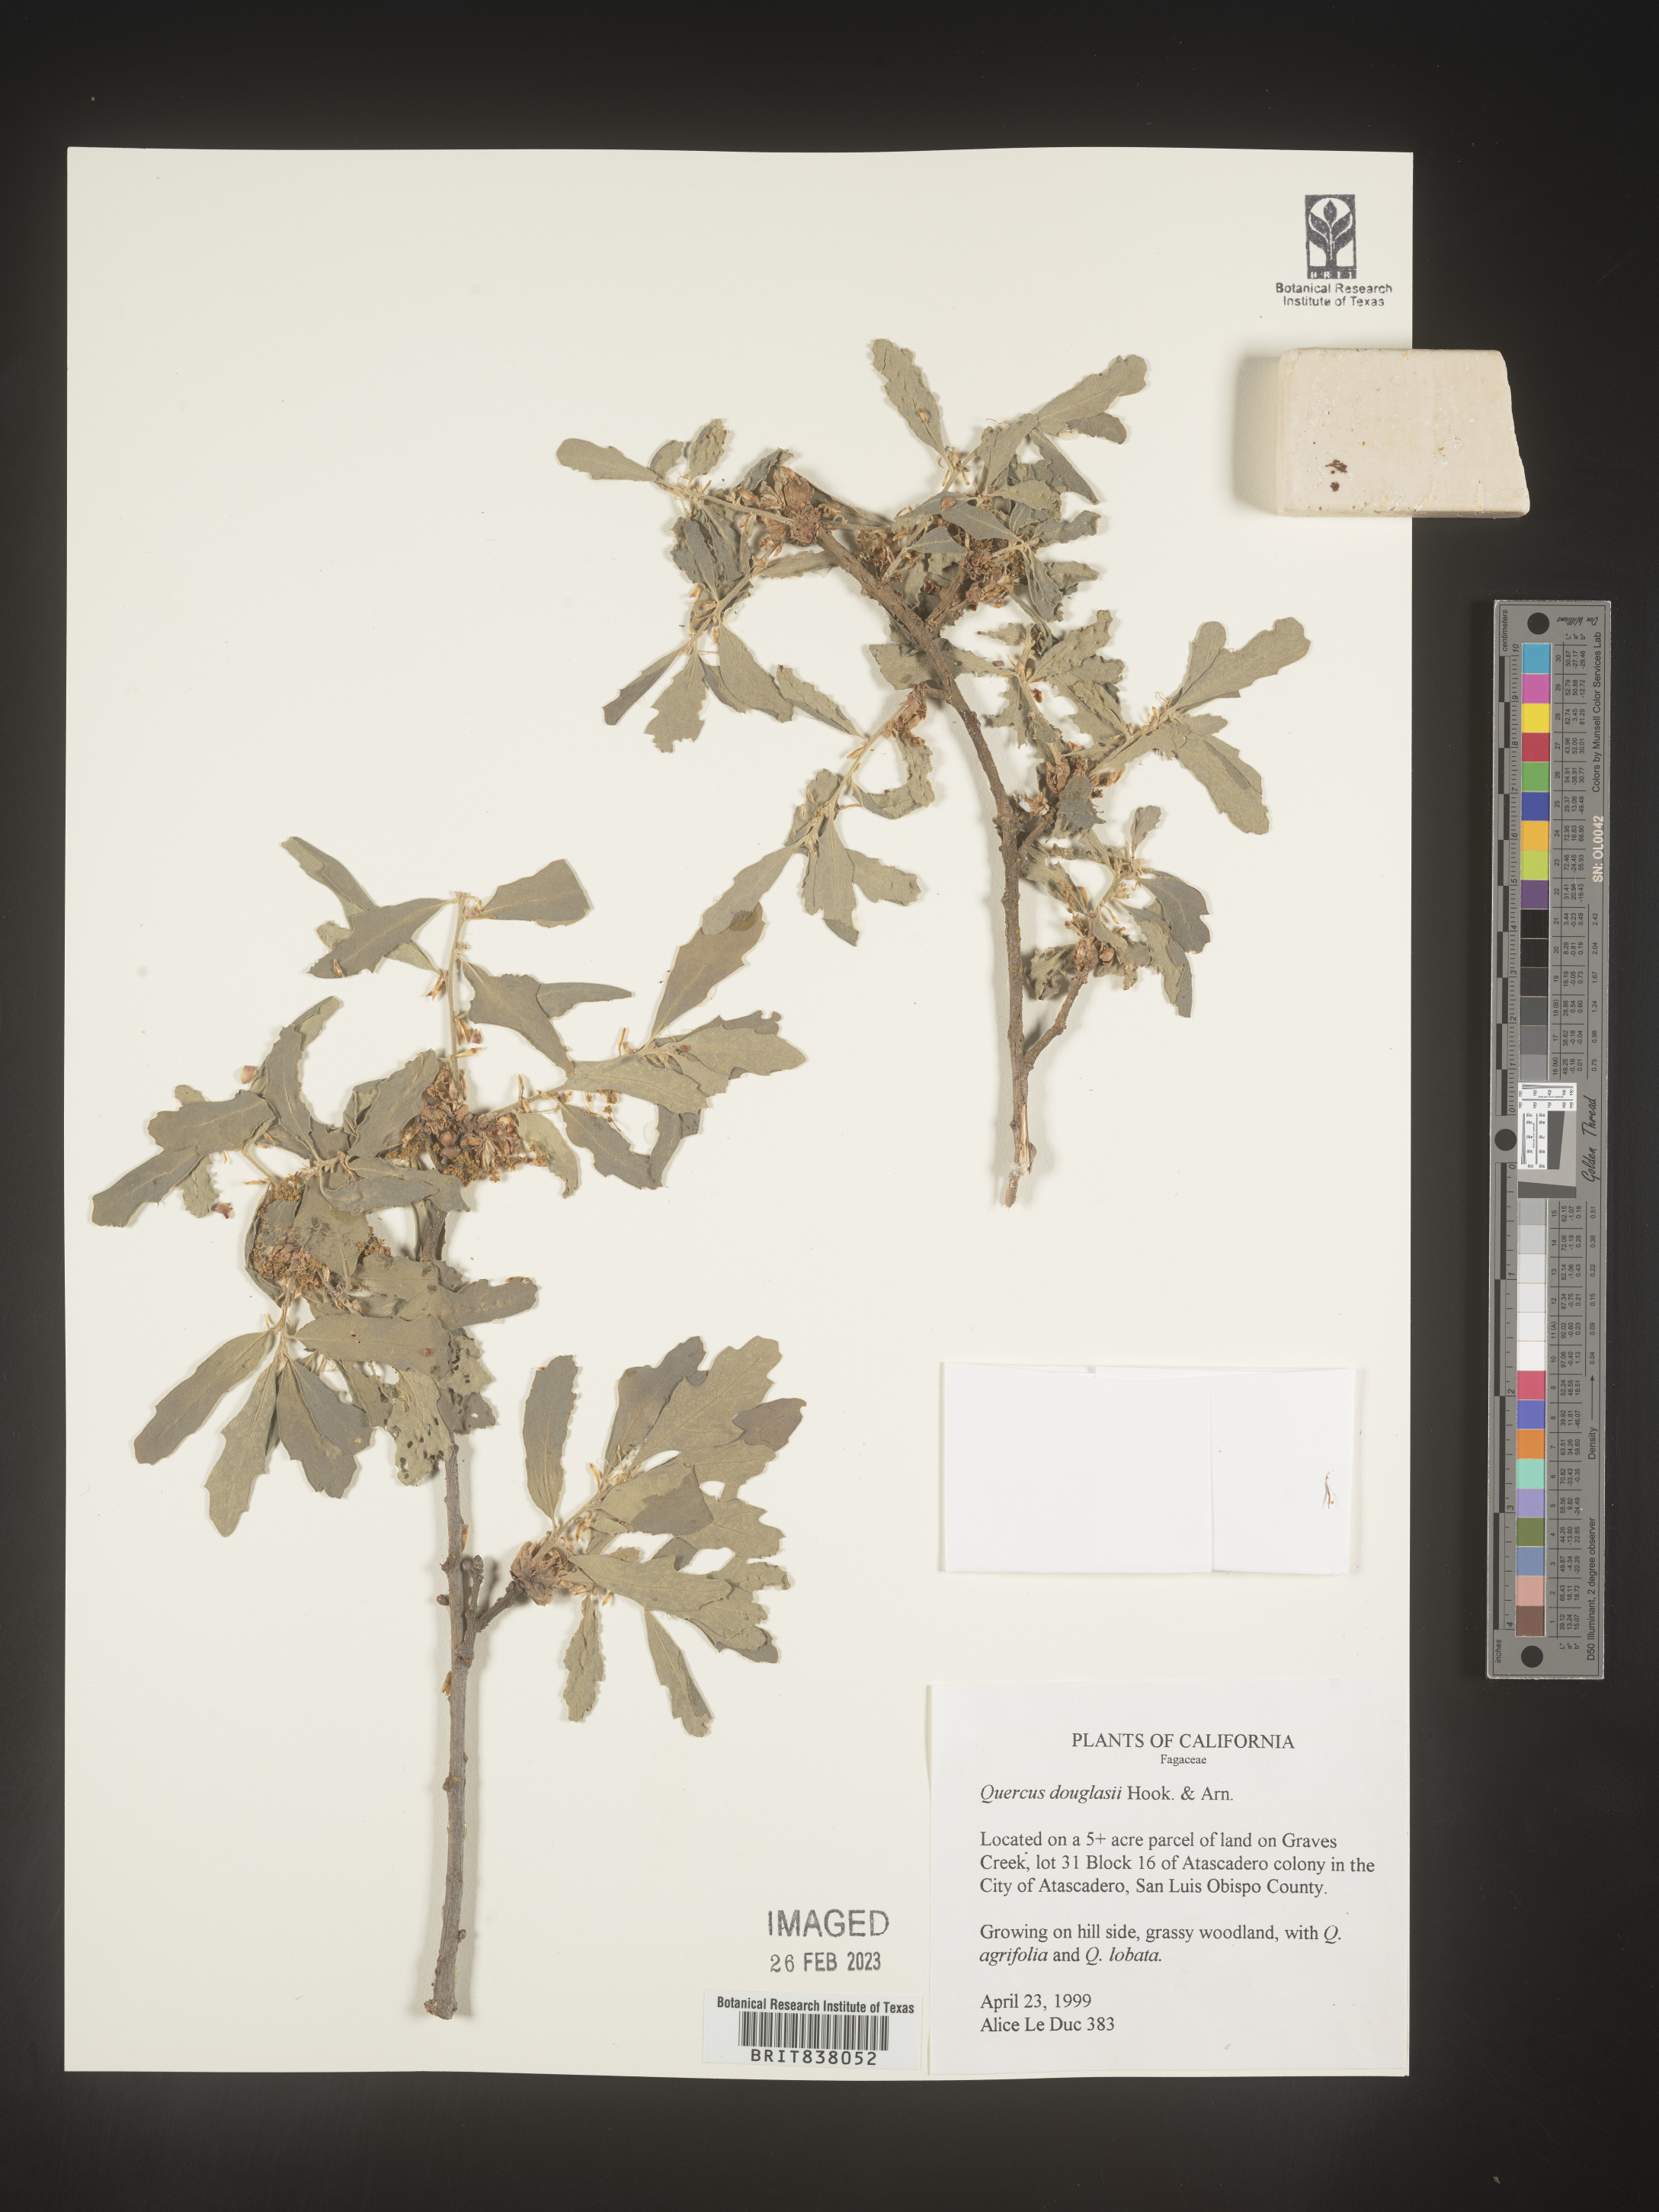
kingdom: Plantae
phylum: Tracheophyta
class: Magnoliopsida
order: Fagales
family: Fagaceae
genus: Quercus
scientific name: Quercus
